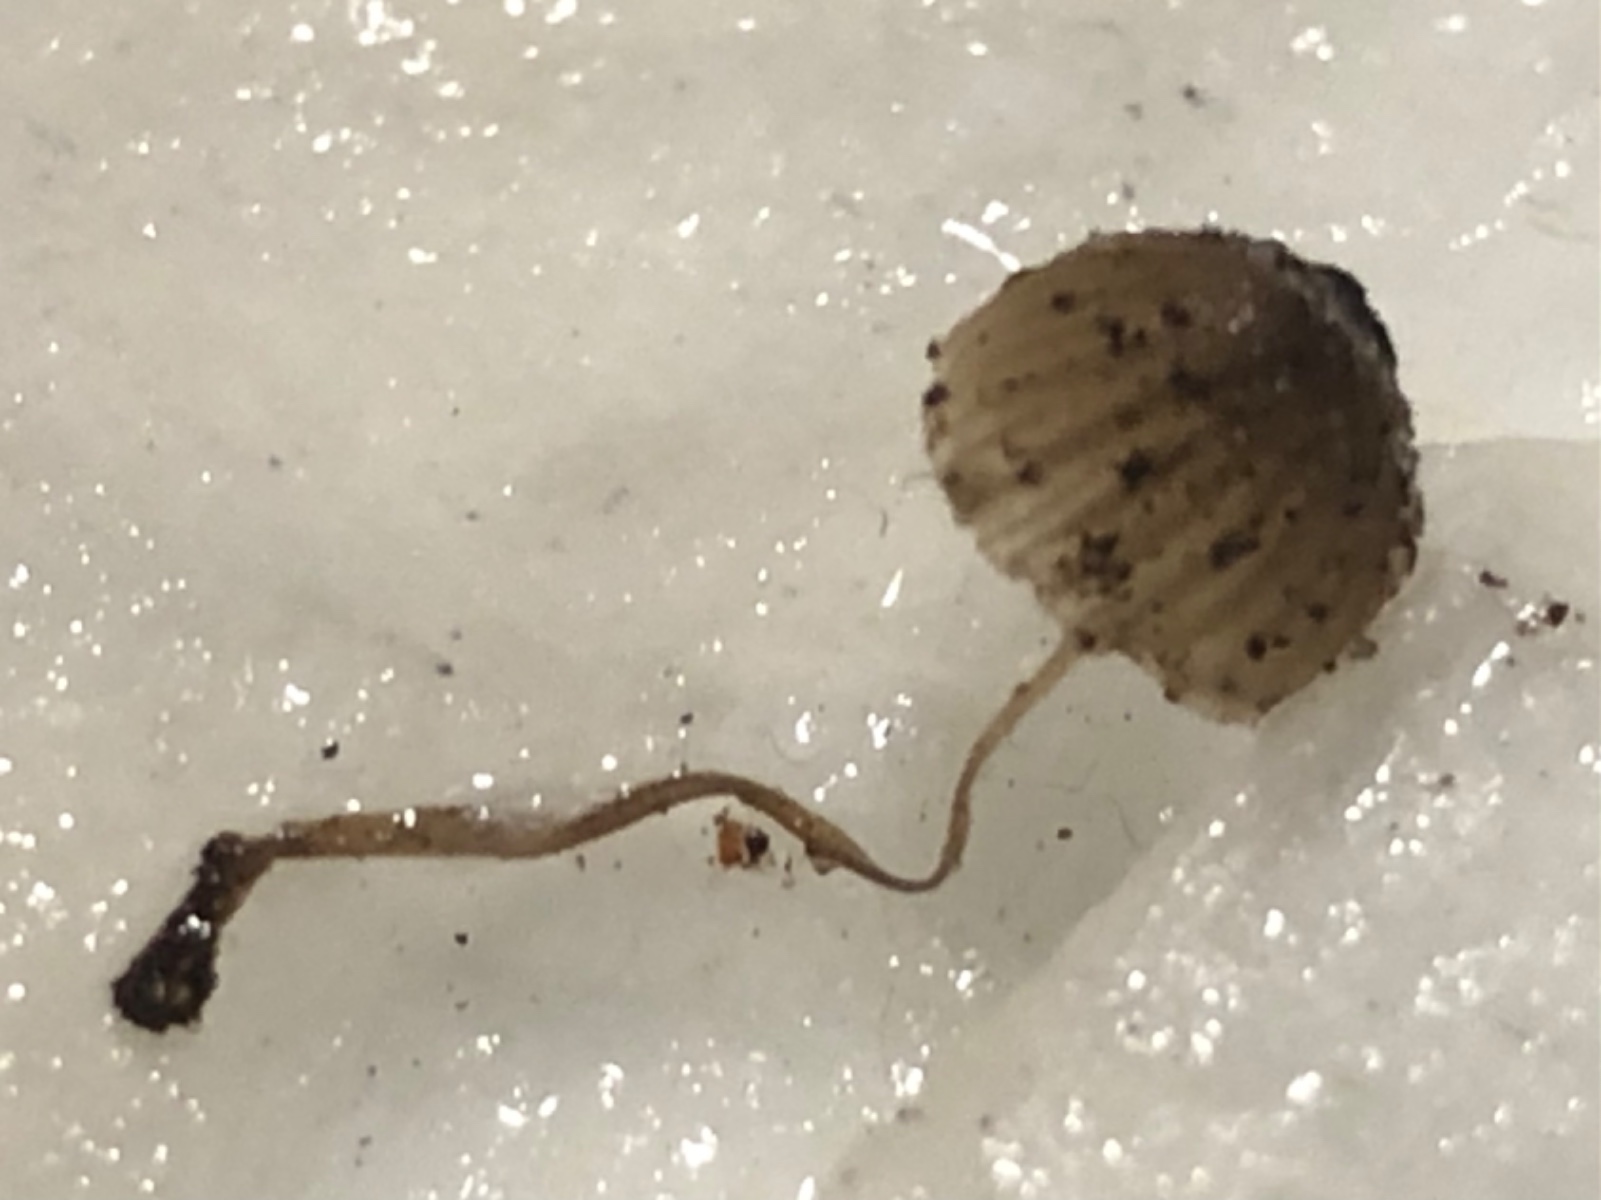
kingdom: Fungi
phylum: Basidiomycota
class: Agaricomycetes
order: Agaricales
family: Mycenaceae
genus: Mycena
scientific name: Mycena
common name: huesvamp
